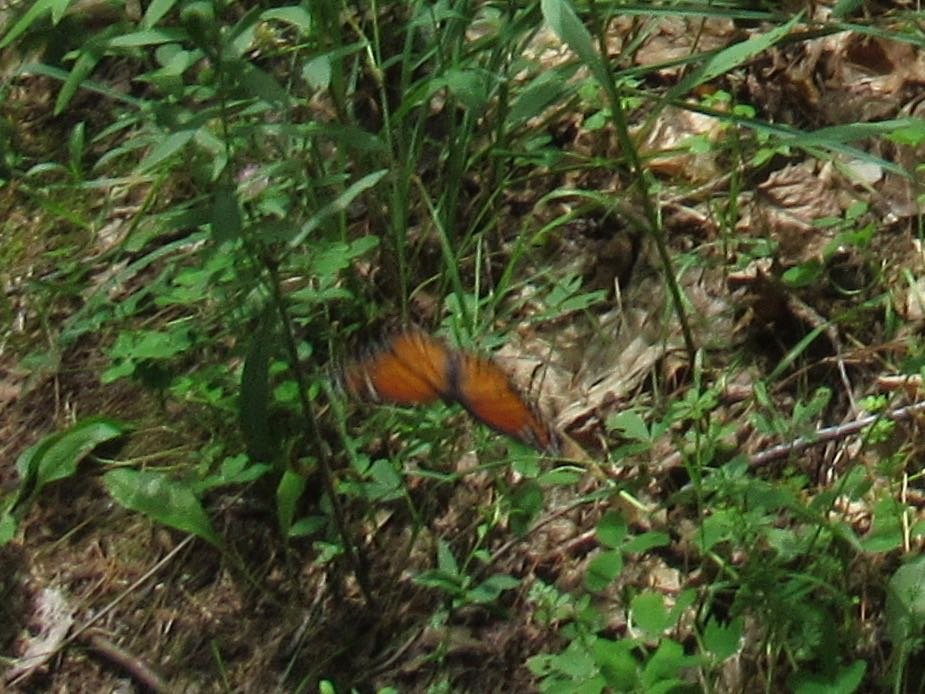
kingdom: Animalia
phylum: Arthropoda
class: Insecta
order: Lepidoptera
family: Nymphalidae
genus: Limenitis
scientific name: Limenitis archippus
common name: Viceroy
